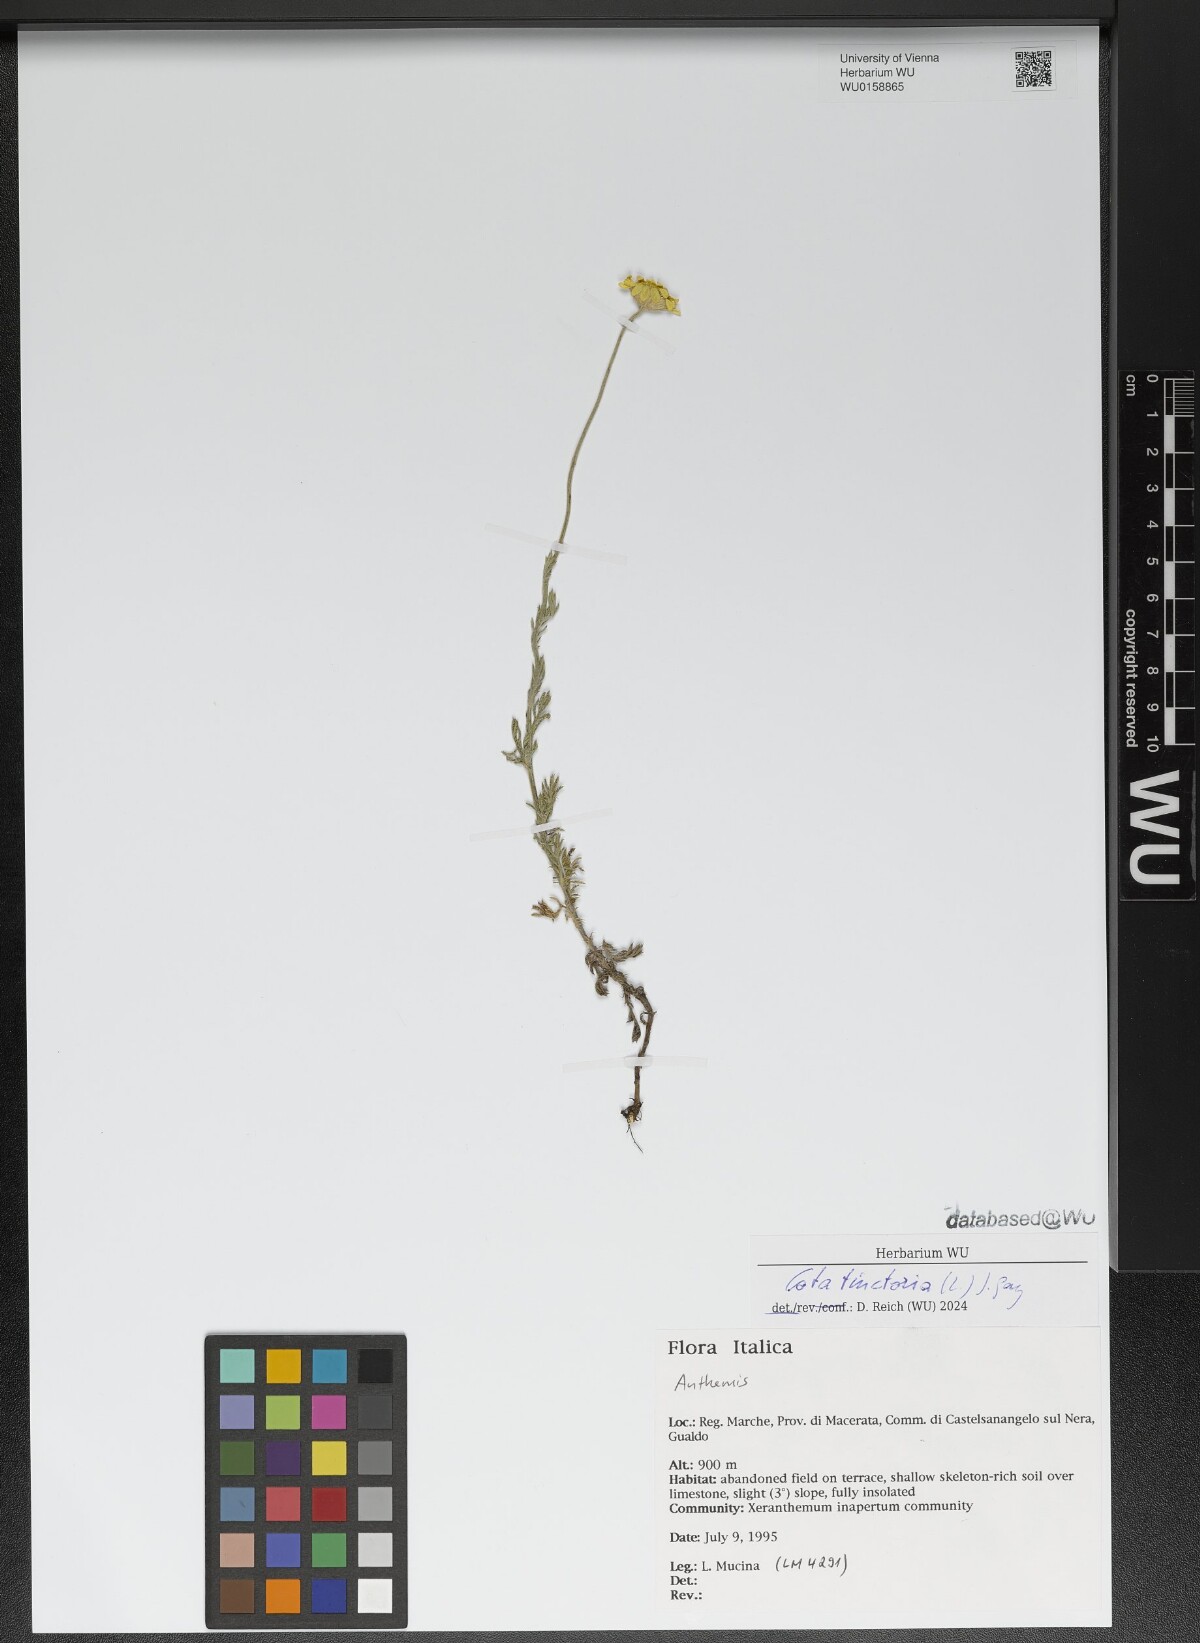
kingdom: Plantae
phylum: Tracheophyta
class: Magnoliopsida
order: Asterales
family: Asteraceae
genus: Cota
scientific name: Cota tinctoria
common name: Golden chamomile
